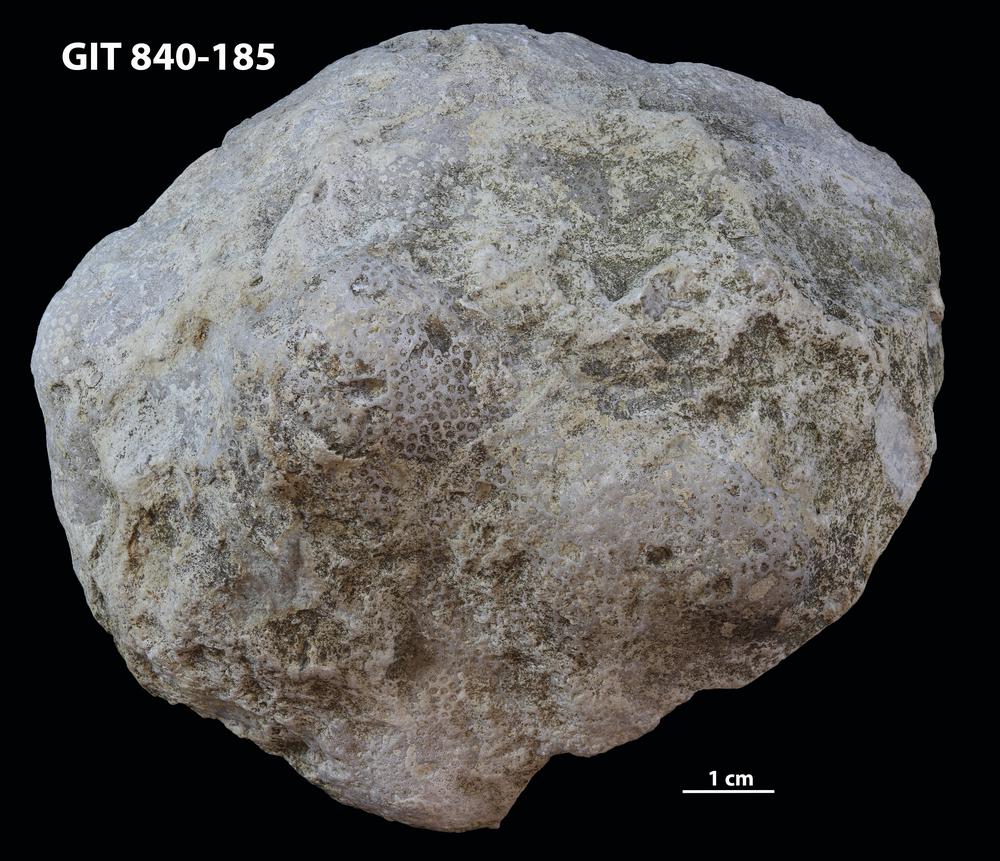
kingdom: Animalia
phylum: Cnidaria
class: Anthozoa
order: Heliolitina
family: Heliolitidae
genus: Acidolites
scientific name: Acidolites
